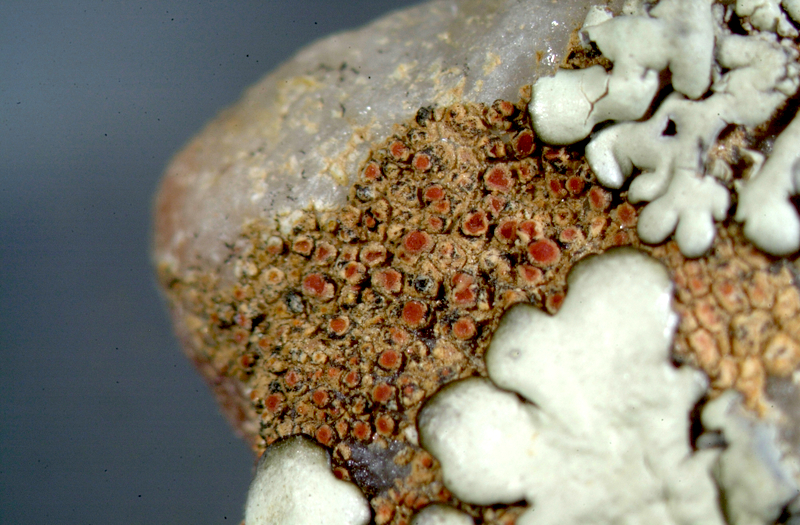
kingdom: Fungi
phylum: Ascomycota
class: Lecanoromycetes
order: Lecanorales
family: Parmeliaceae
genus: Xanthoparmelia
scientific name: Xanthoparmelia
